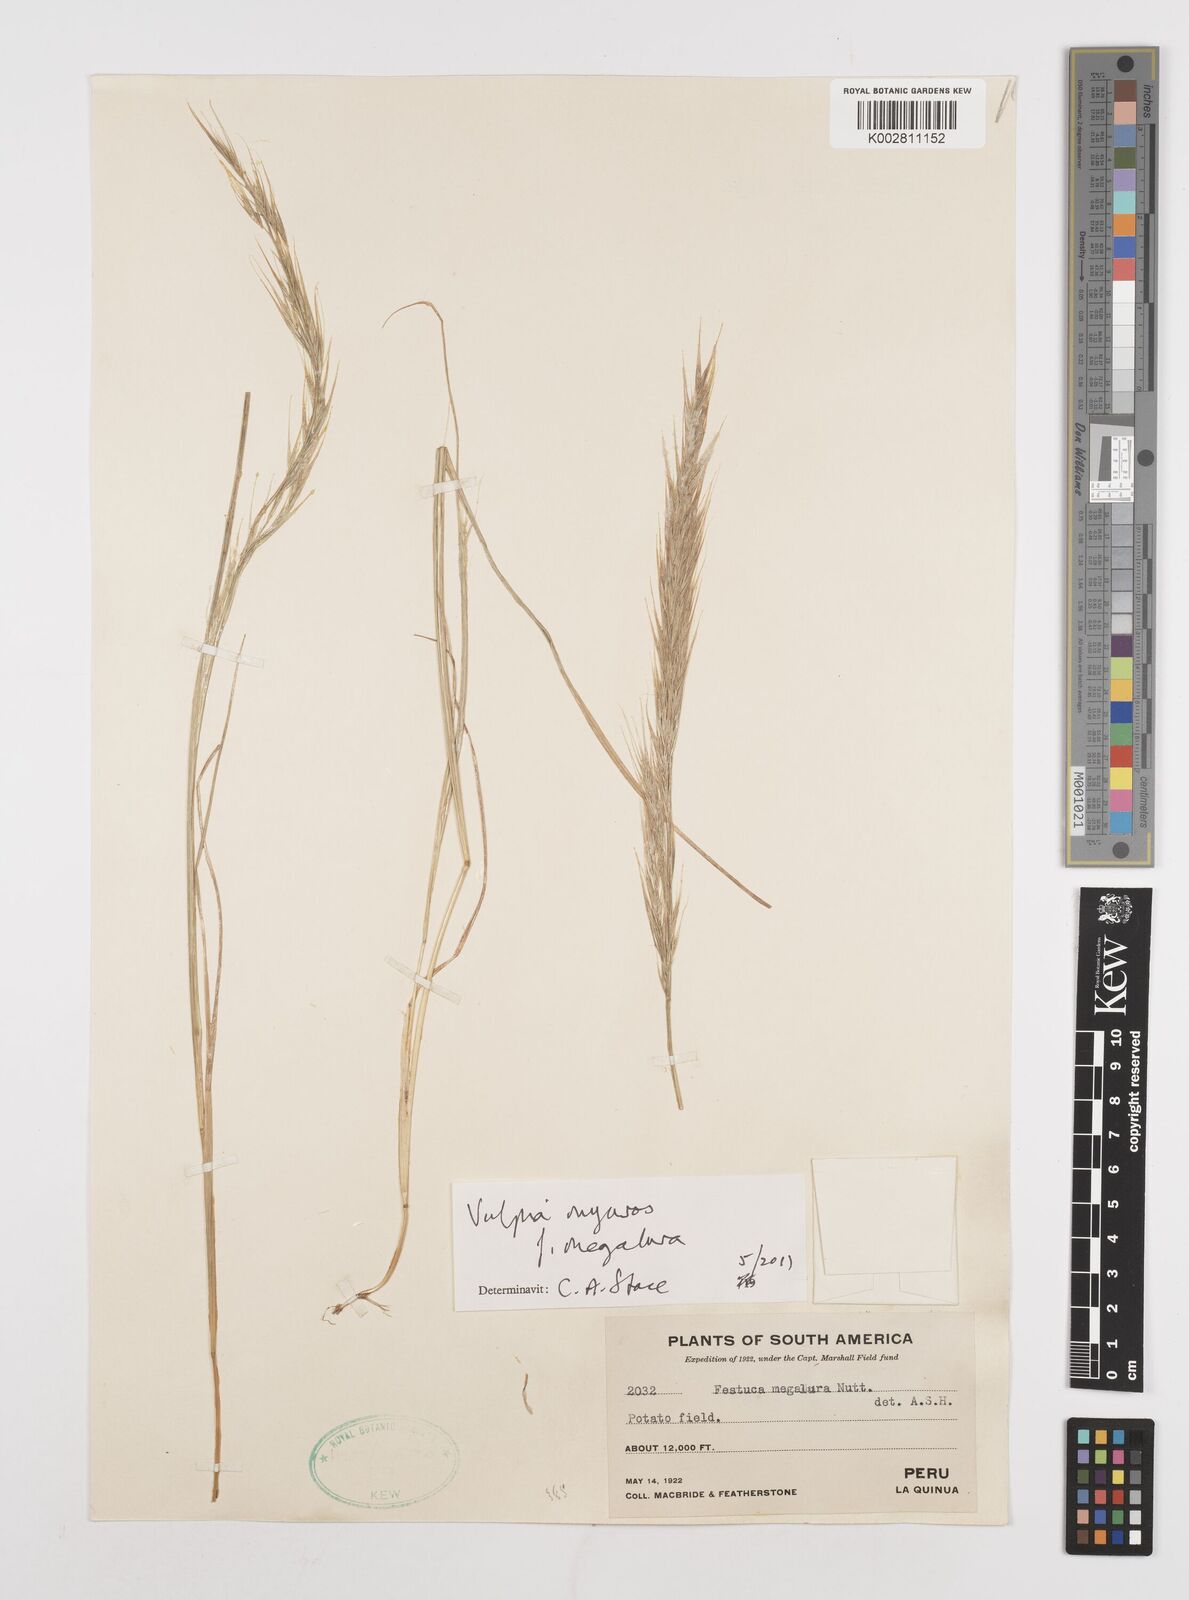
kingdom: Plantae
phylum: Tracheophyta
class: Liliopsida
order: Poales
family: Poaceae
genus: Festuca
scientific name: Festuca myuros
